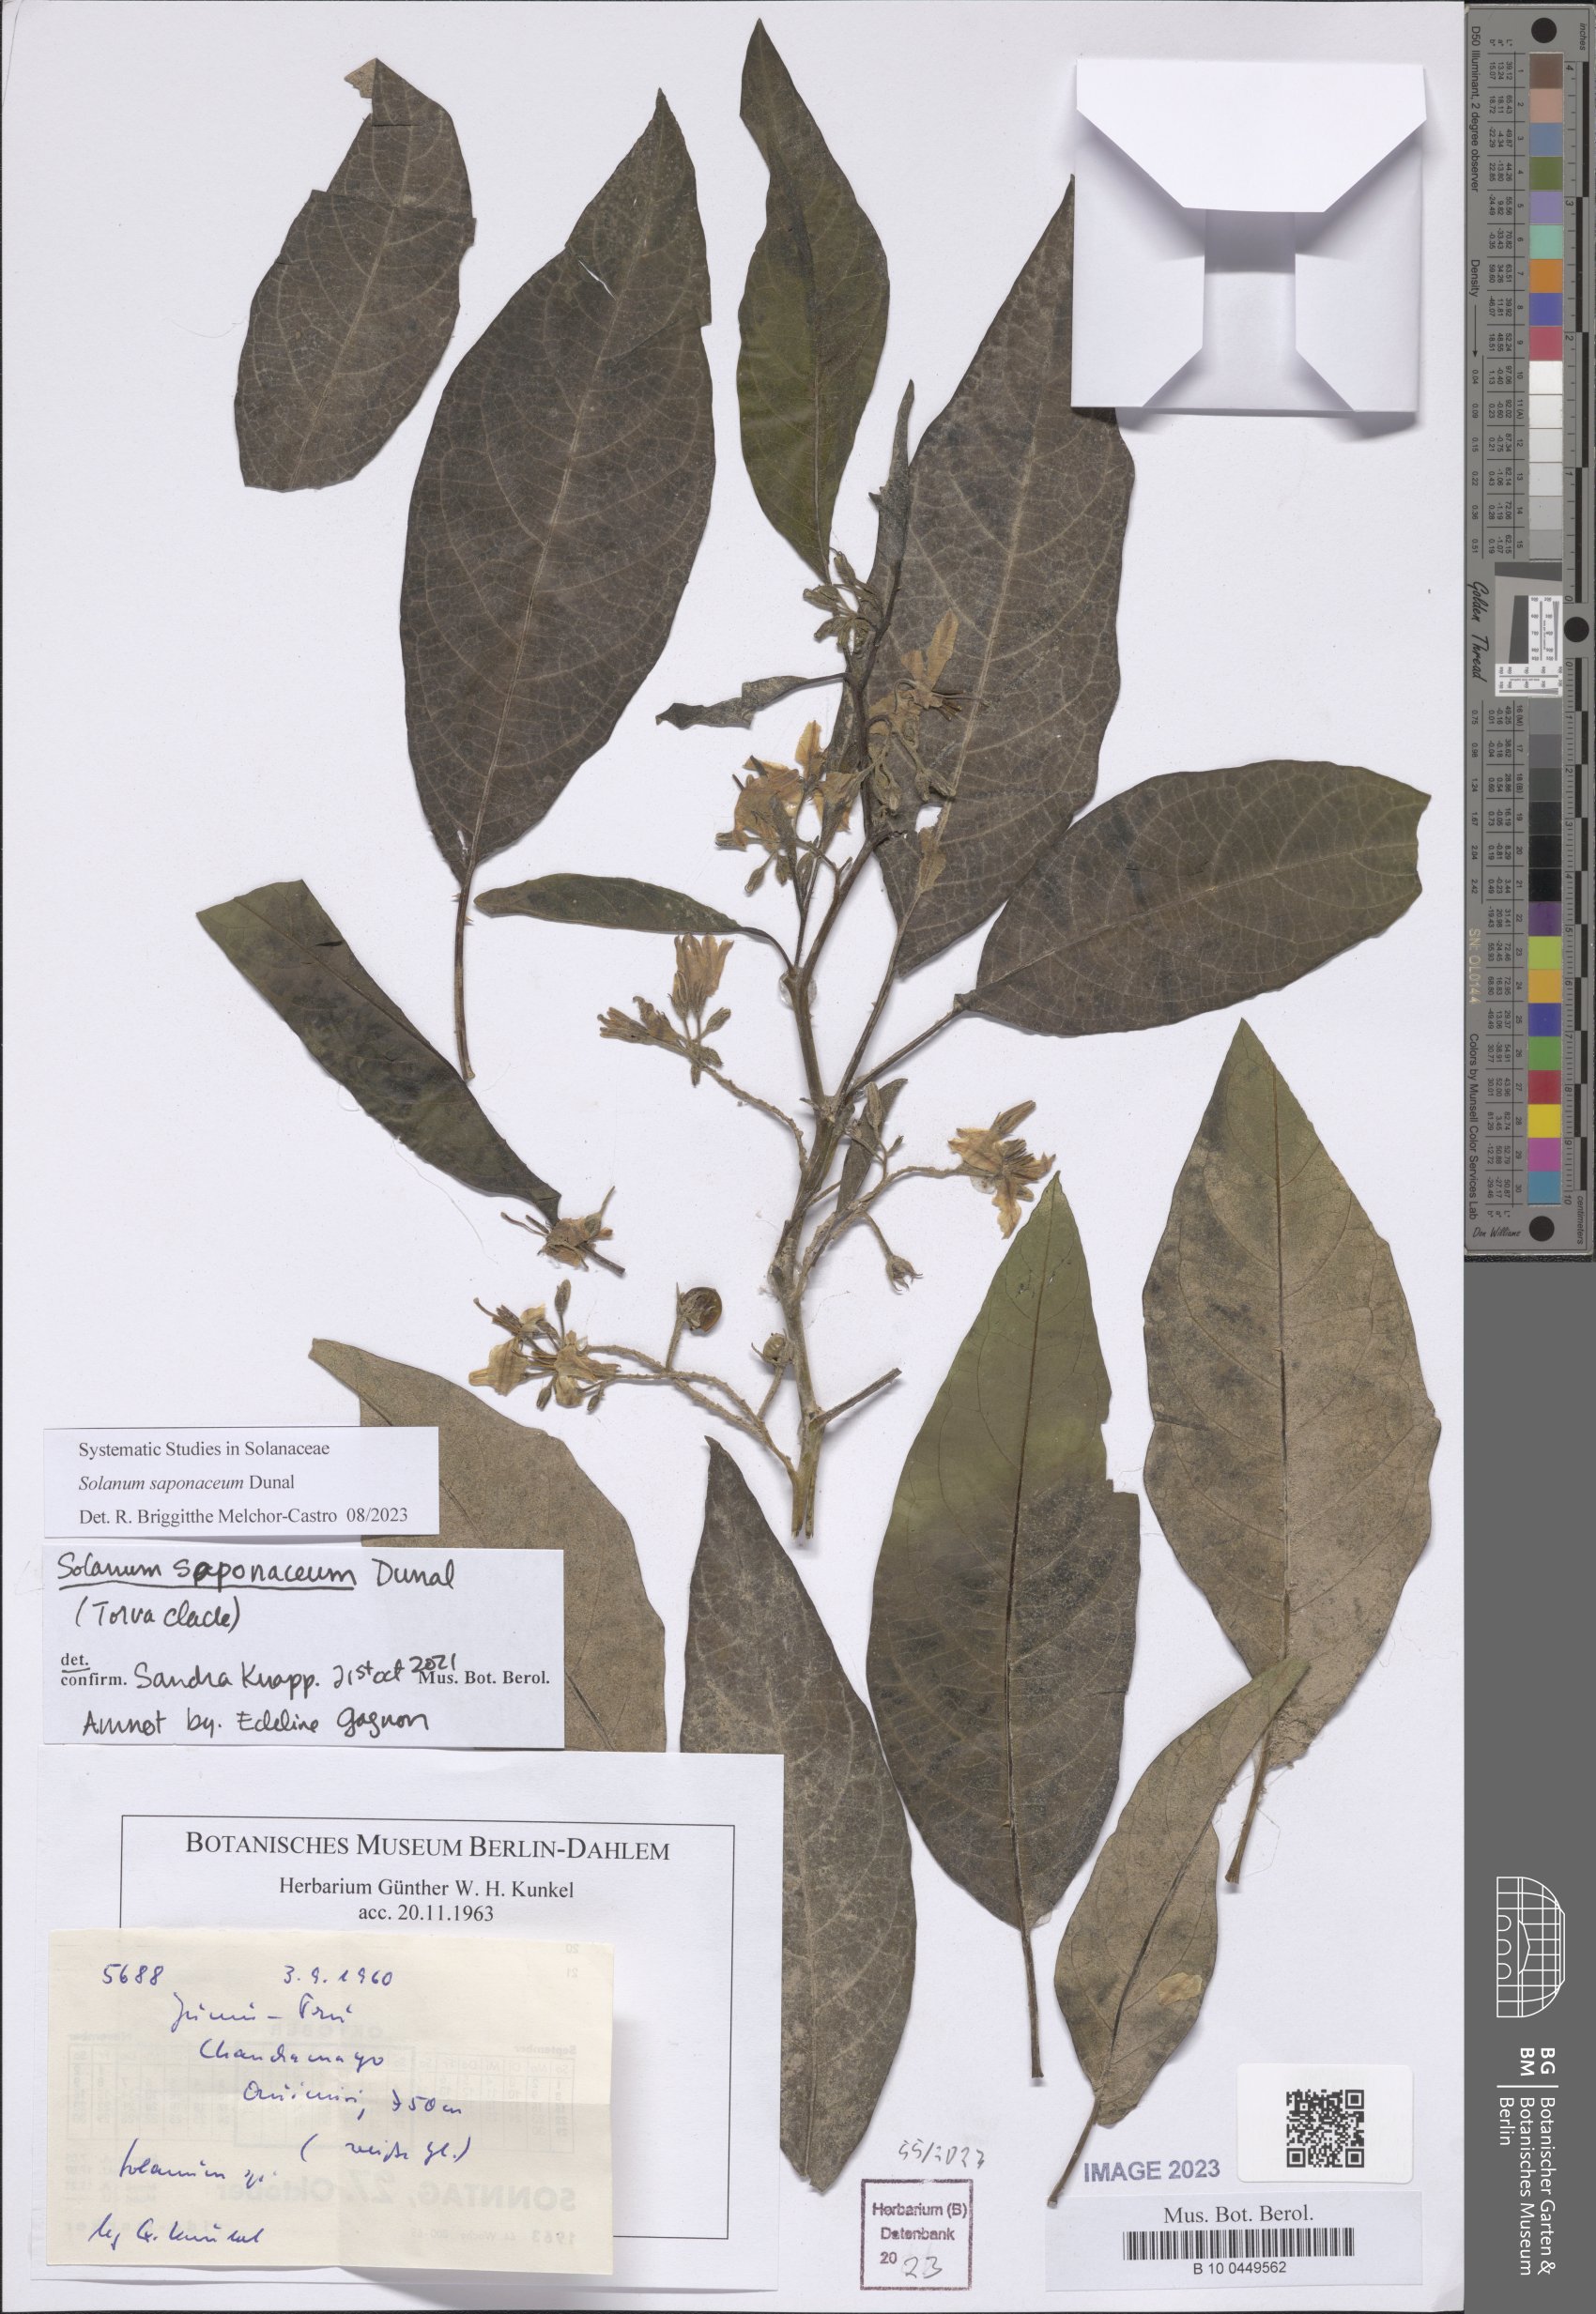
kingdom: Plantae
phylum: Tracheophyta
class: Magnoliopsida
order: Solanales
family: Solanaceae
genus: Solanum
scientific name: Solanum saponaceum
